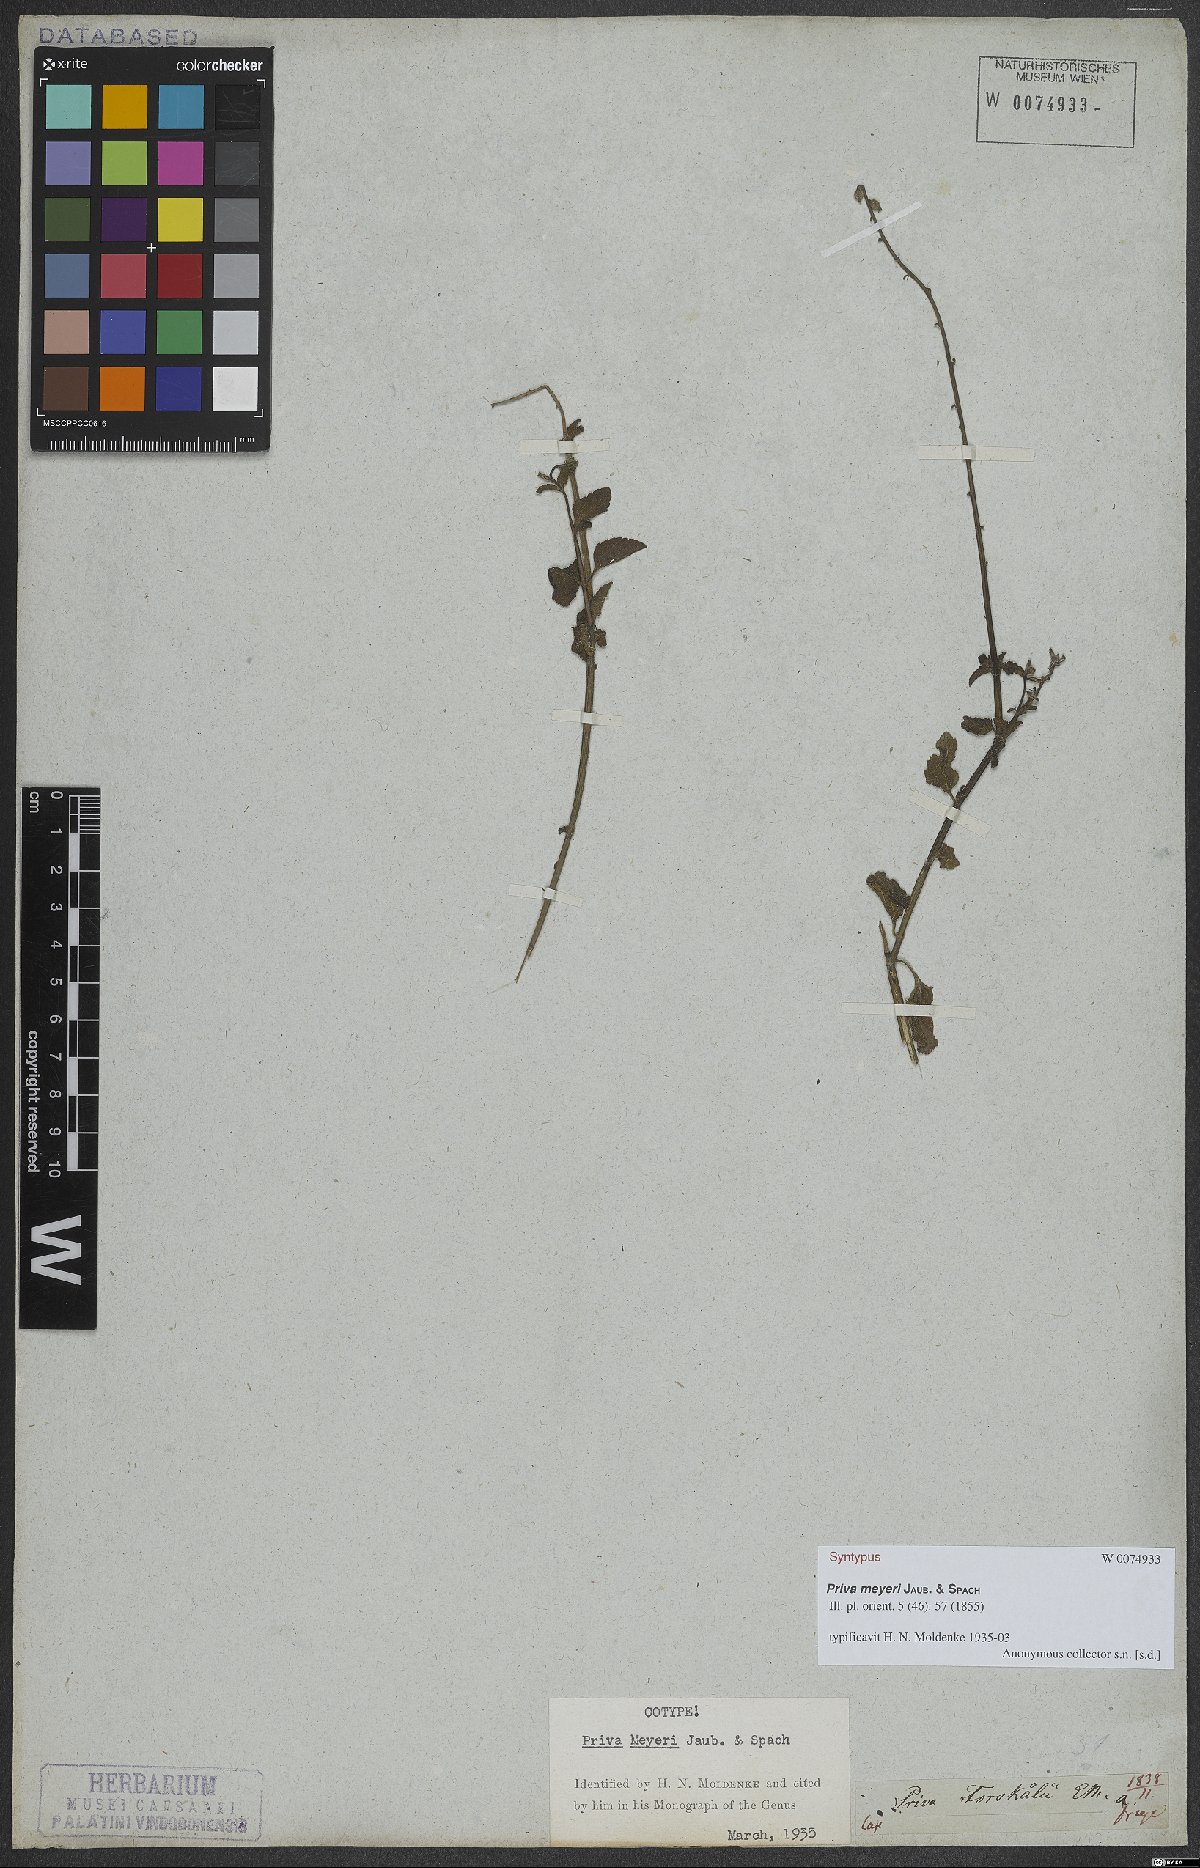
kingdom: Plantae
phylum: Tracheophyta
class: Magnoliopsida
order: Lamiales
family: Verbenaceae
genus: Priva
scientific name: Priva meyeri
